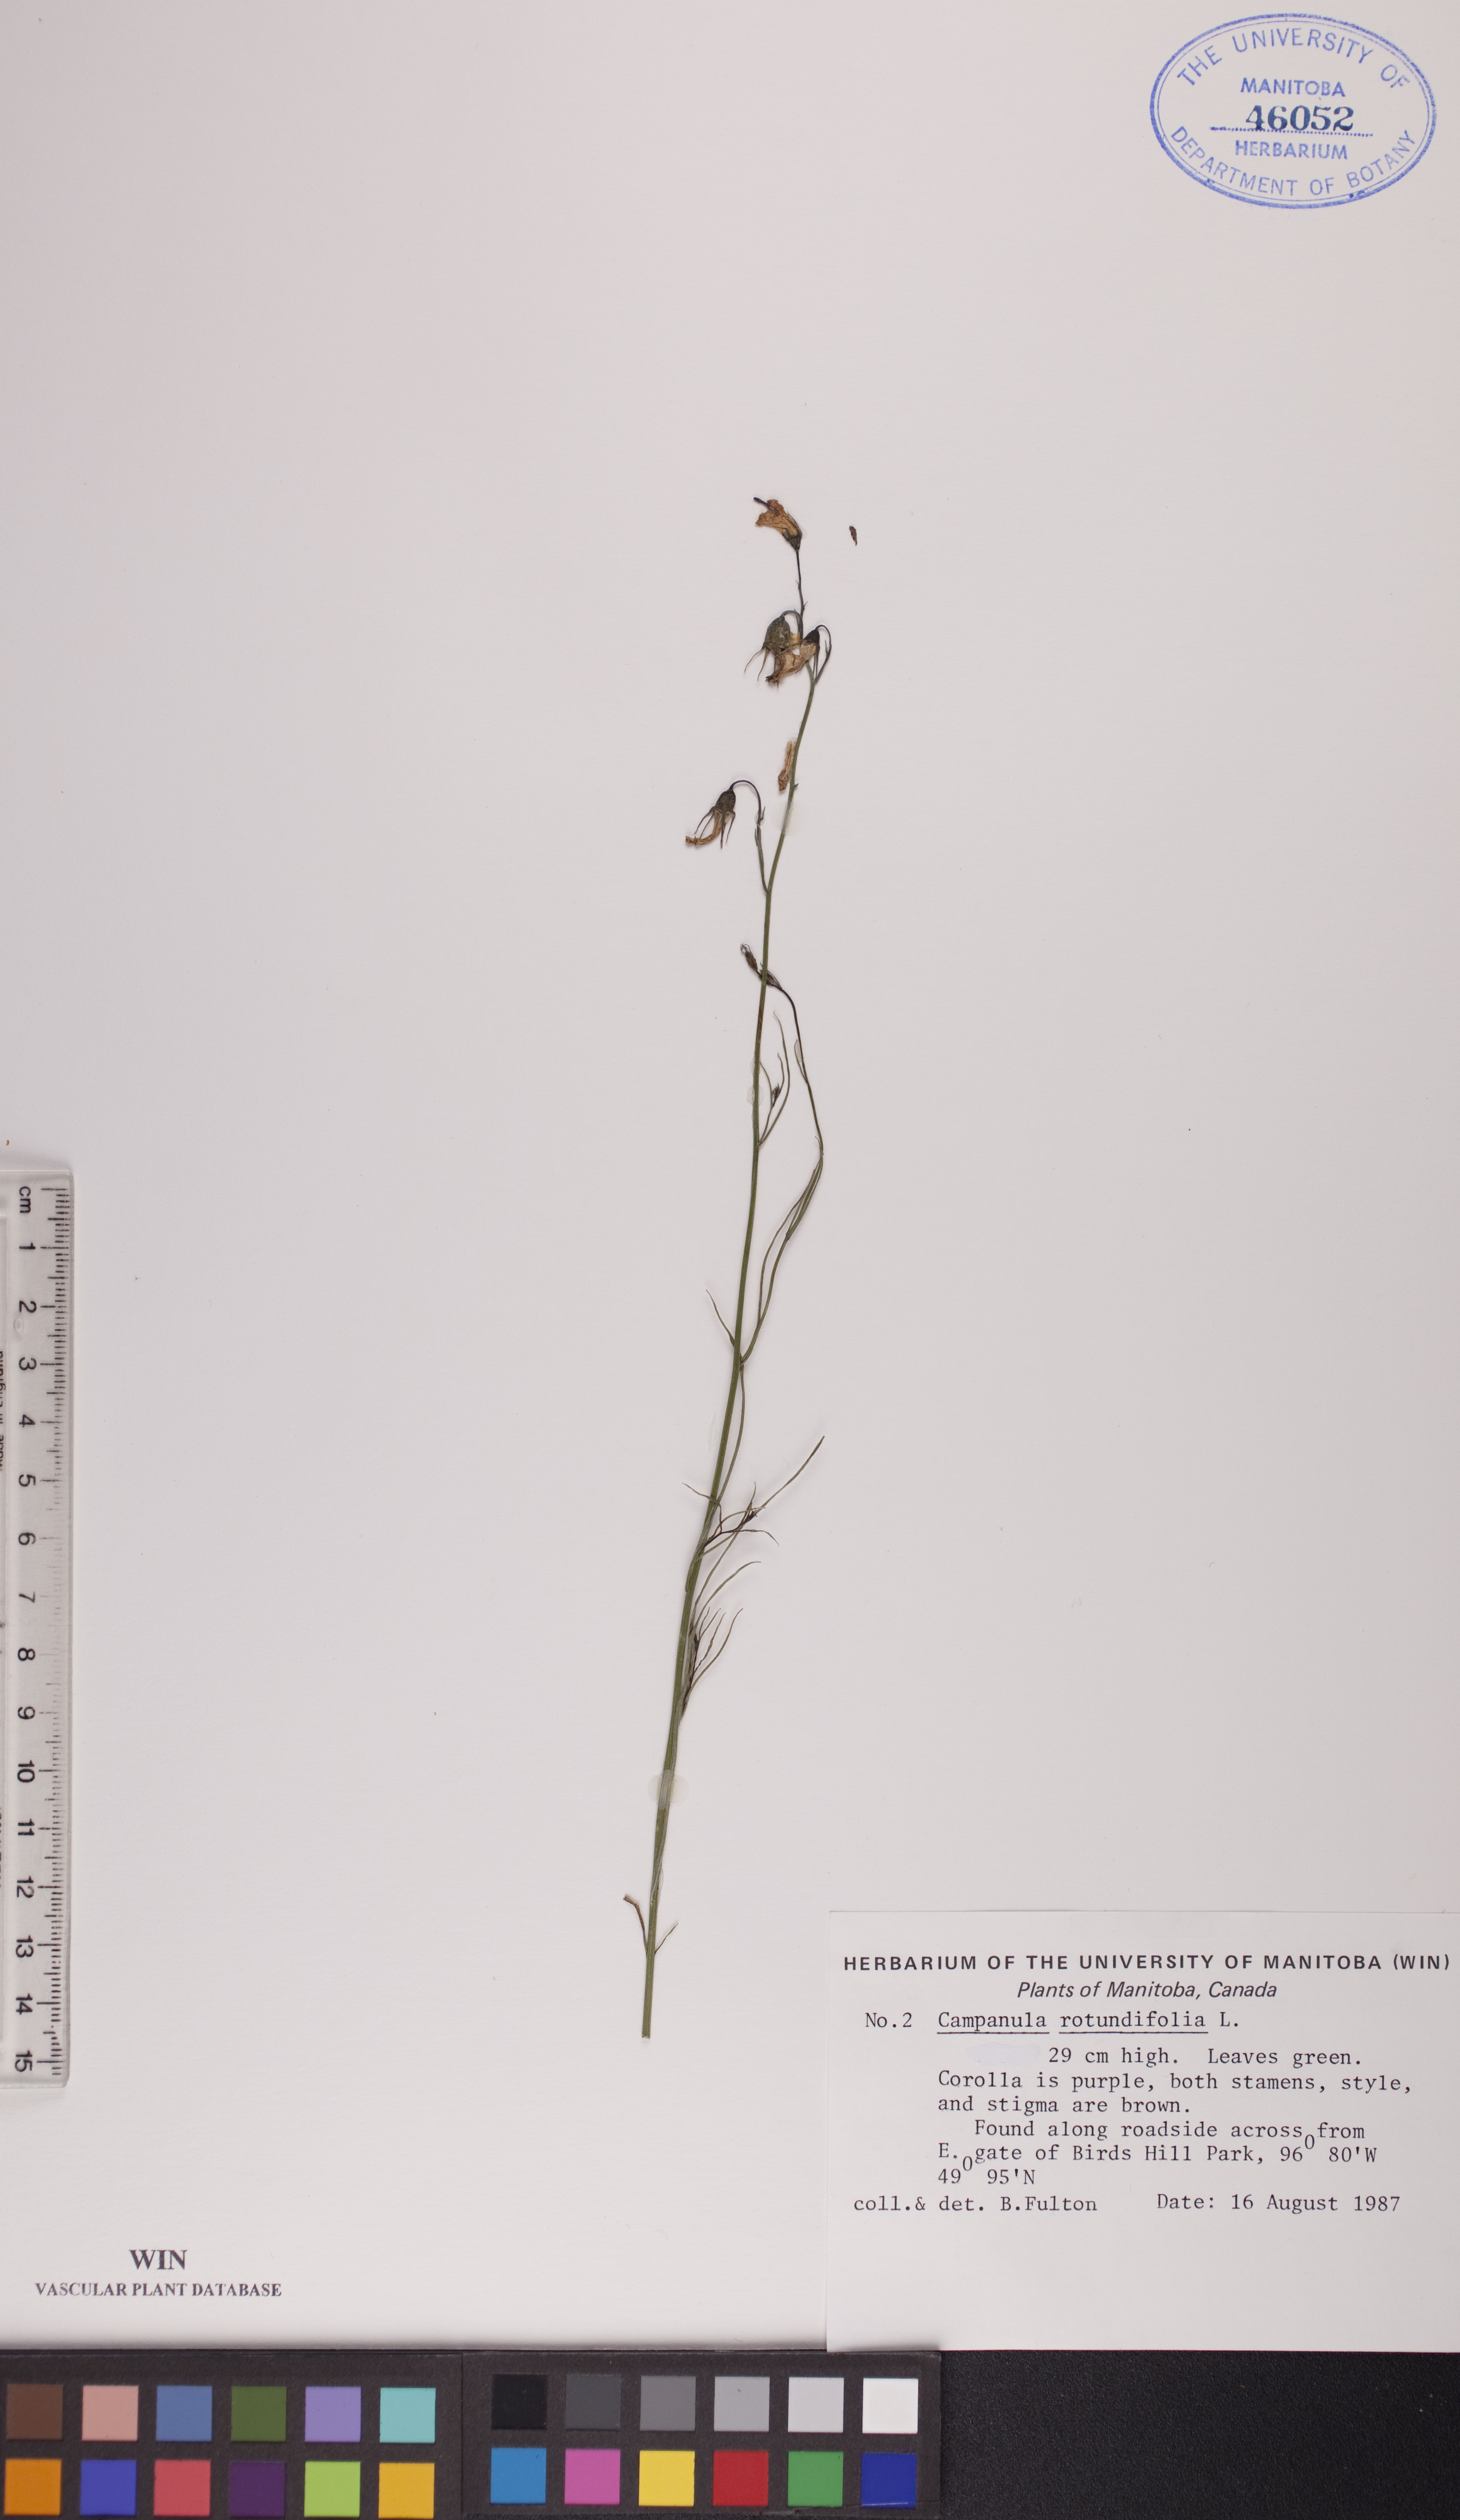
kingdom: Plantae
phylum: Tracheophyta
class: Magnoliopsida
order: Asterales
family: Campanulaceae
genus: Campanula
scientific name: Campanula rotundifolia
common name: Harebell
